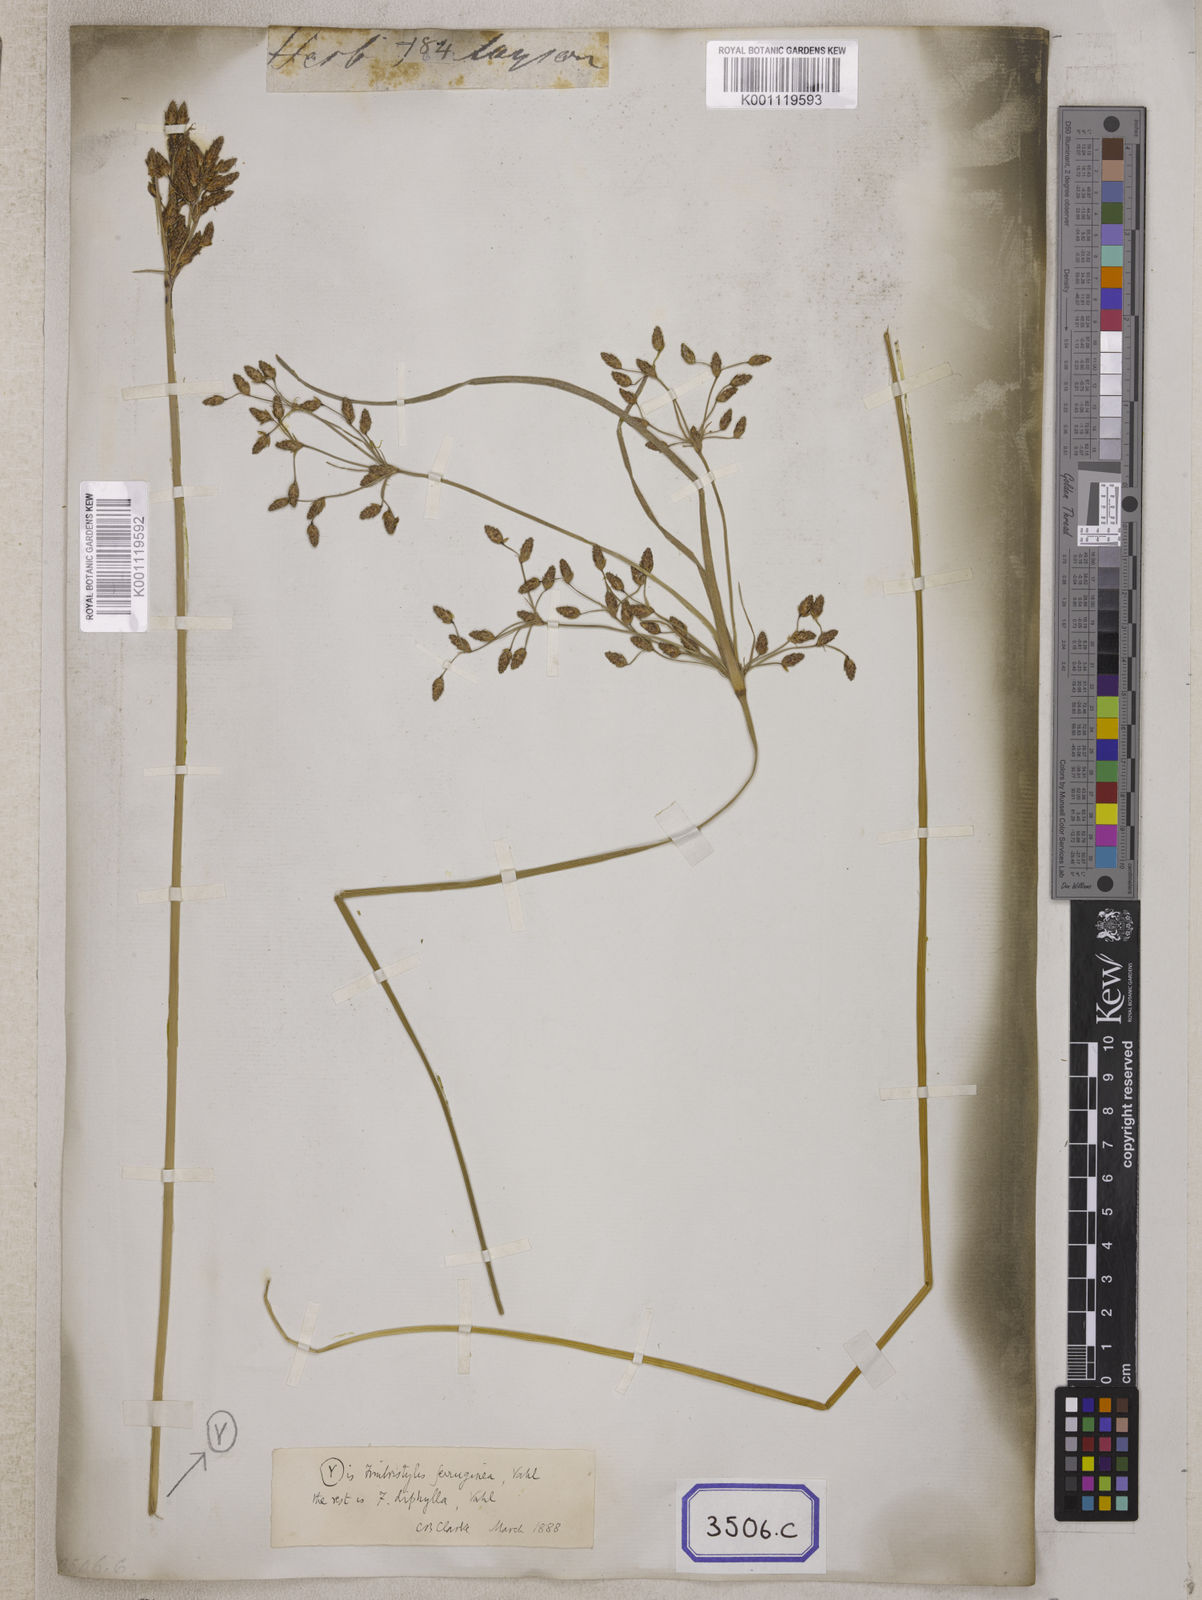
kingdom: Plantae
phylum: Tracheophyta
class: Liliopsida
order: Poales
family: Cyperaceae
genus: Fimbristylis
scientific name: Fimbristylis
